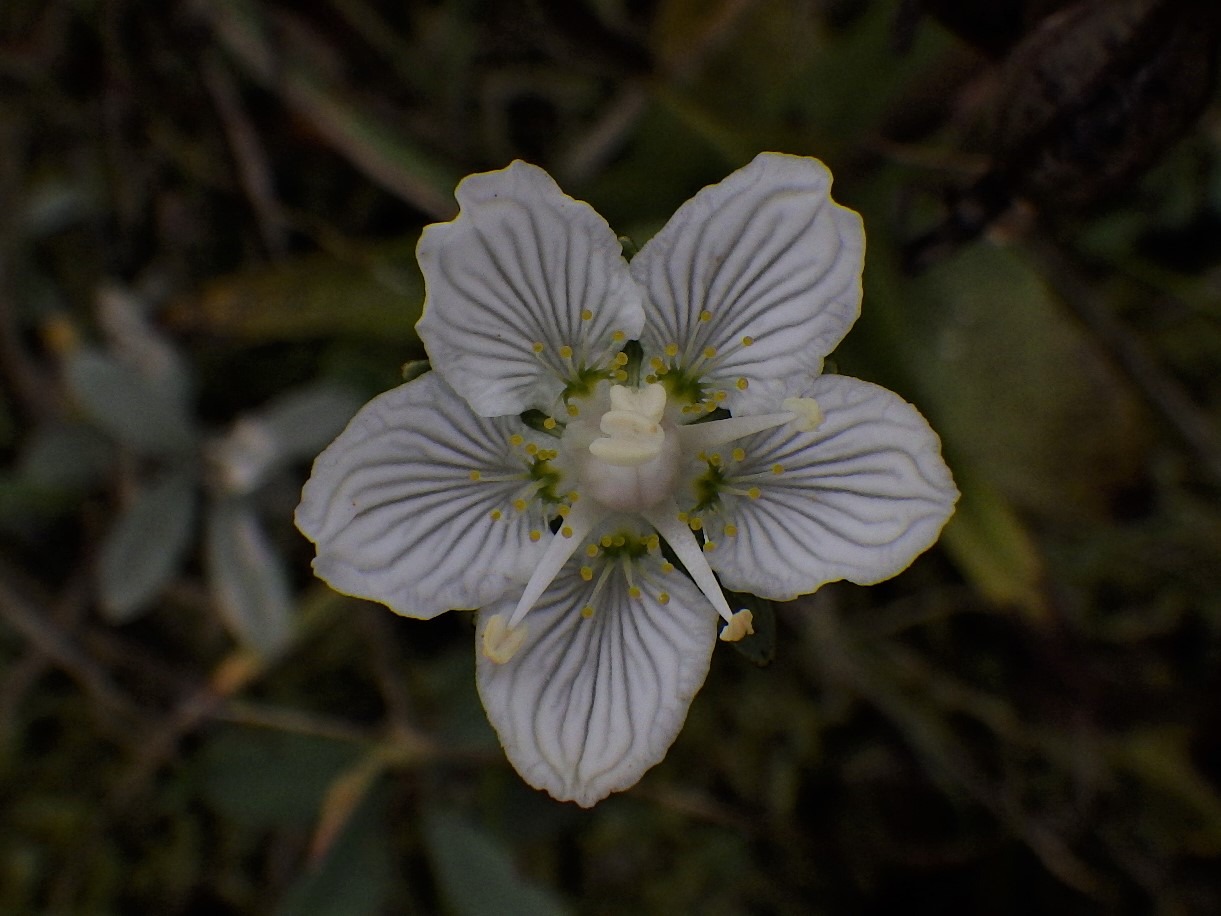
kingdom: Plantae
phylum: Tracheophyta
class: Magnoliopsida
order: Celastrales
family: Parnassiaceae
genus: Parnassia
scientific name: Parnassia palustris
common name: Leverurt
